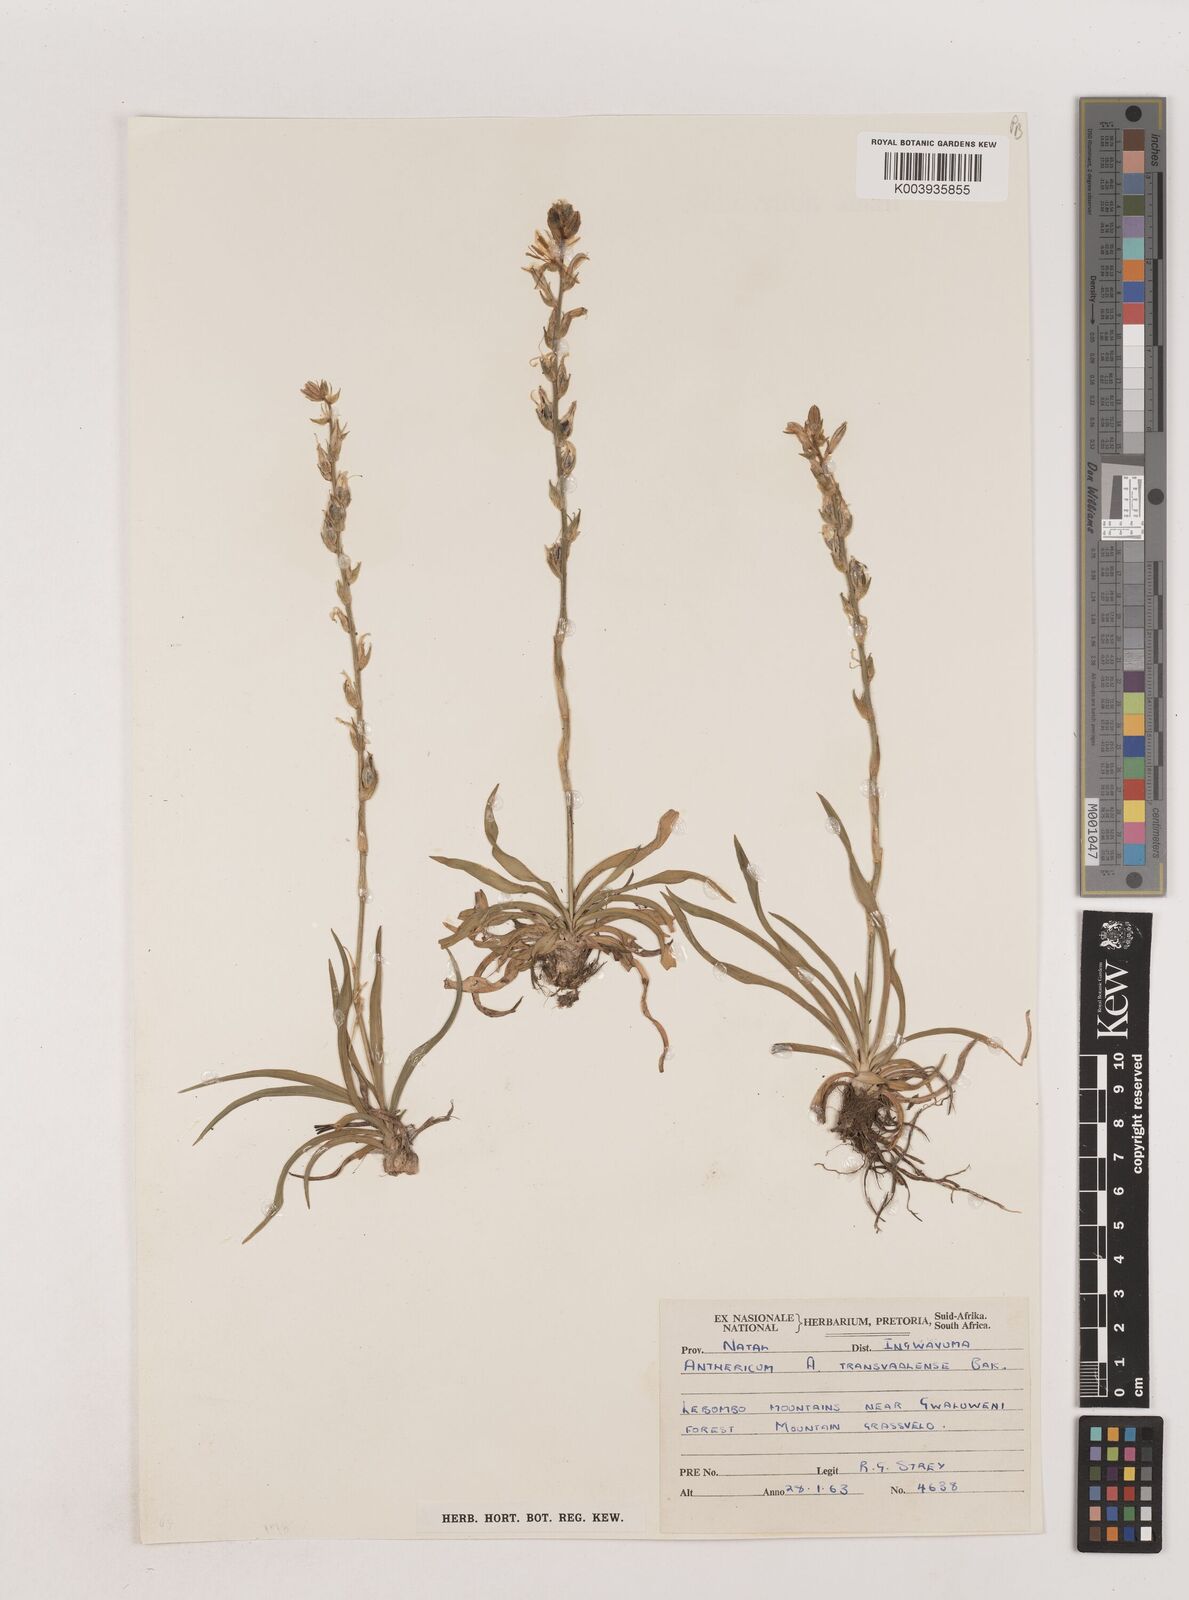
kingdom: Plantae
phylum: Tracheophyta
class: Liliopsida
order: Asparagales
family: Asparagaceae
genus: Chlorophytum
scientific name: Chlorophytum transvaalense
